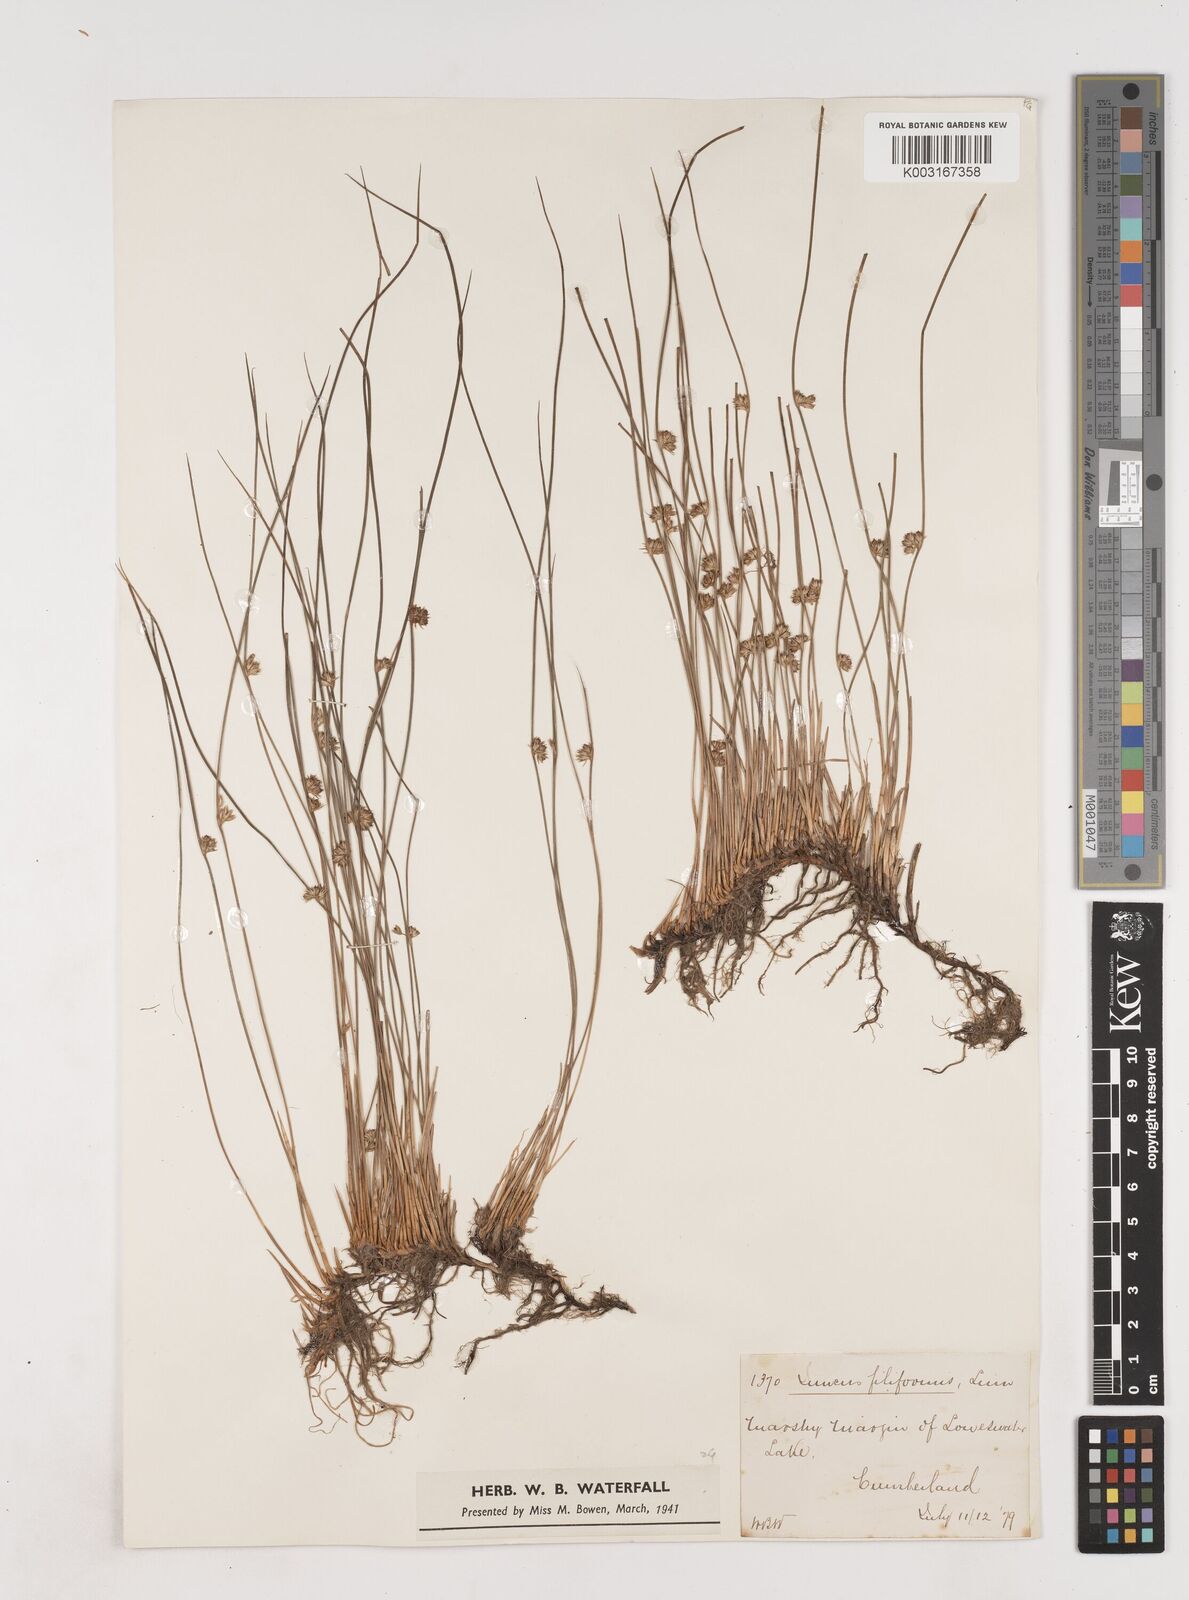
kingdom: Plantae
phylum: Tracheophyta
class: Liliopsida
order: Poales
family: Juncaceae
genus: Juncus
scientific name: Juncus filiformis
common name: Thread rush
